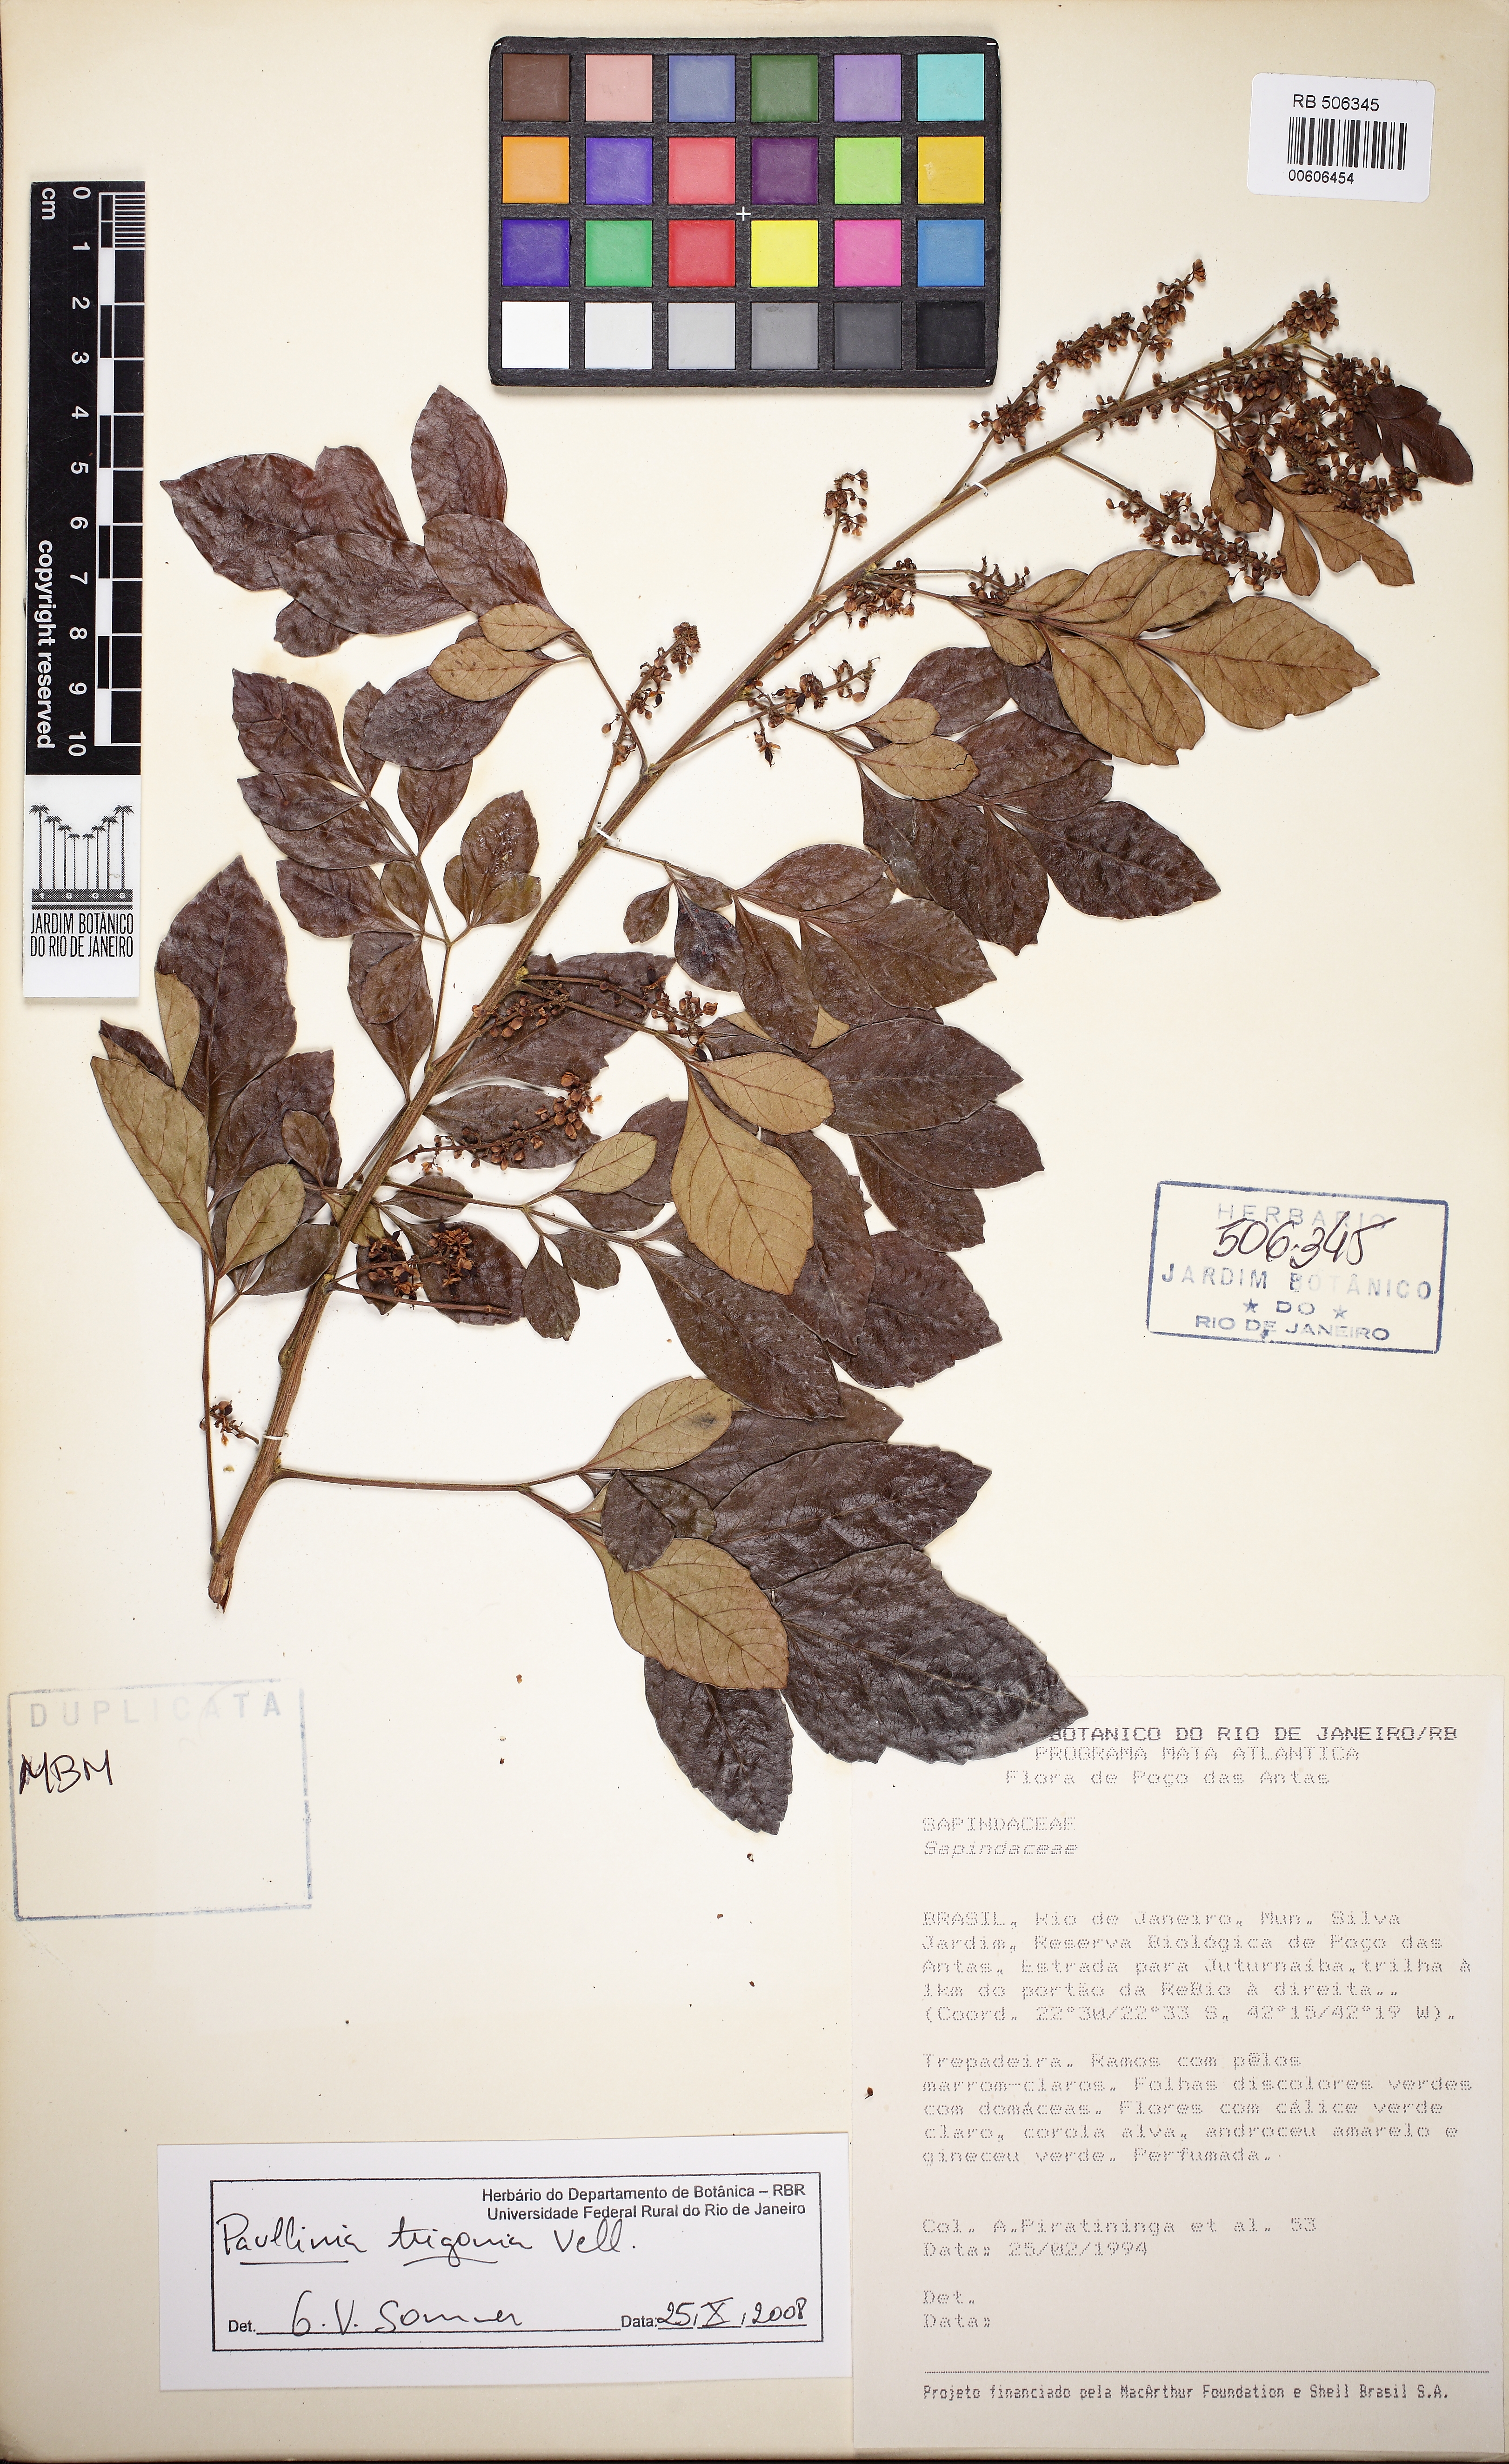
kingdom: Plantae
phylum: Tracheophyta
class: Magnoliopsida
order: Sapindales
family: Sapindaceae
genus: Paullinia
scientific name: Paullinia trigonia
